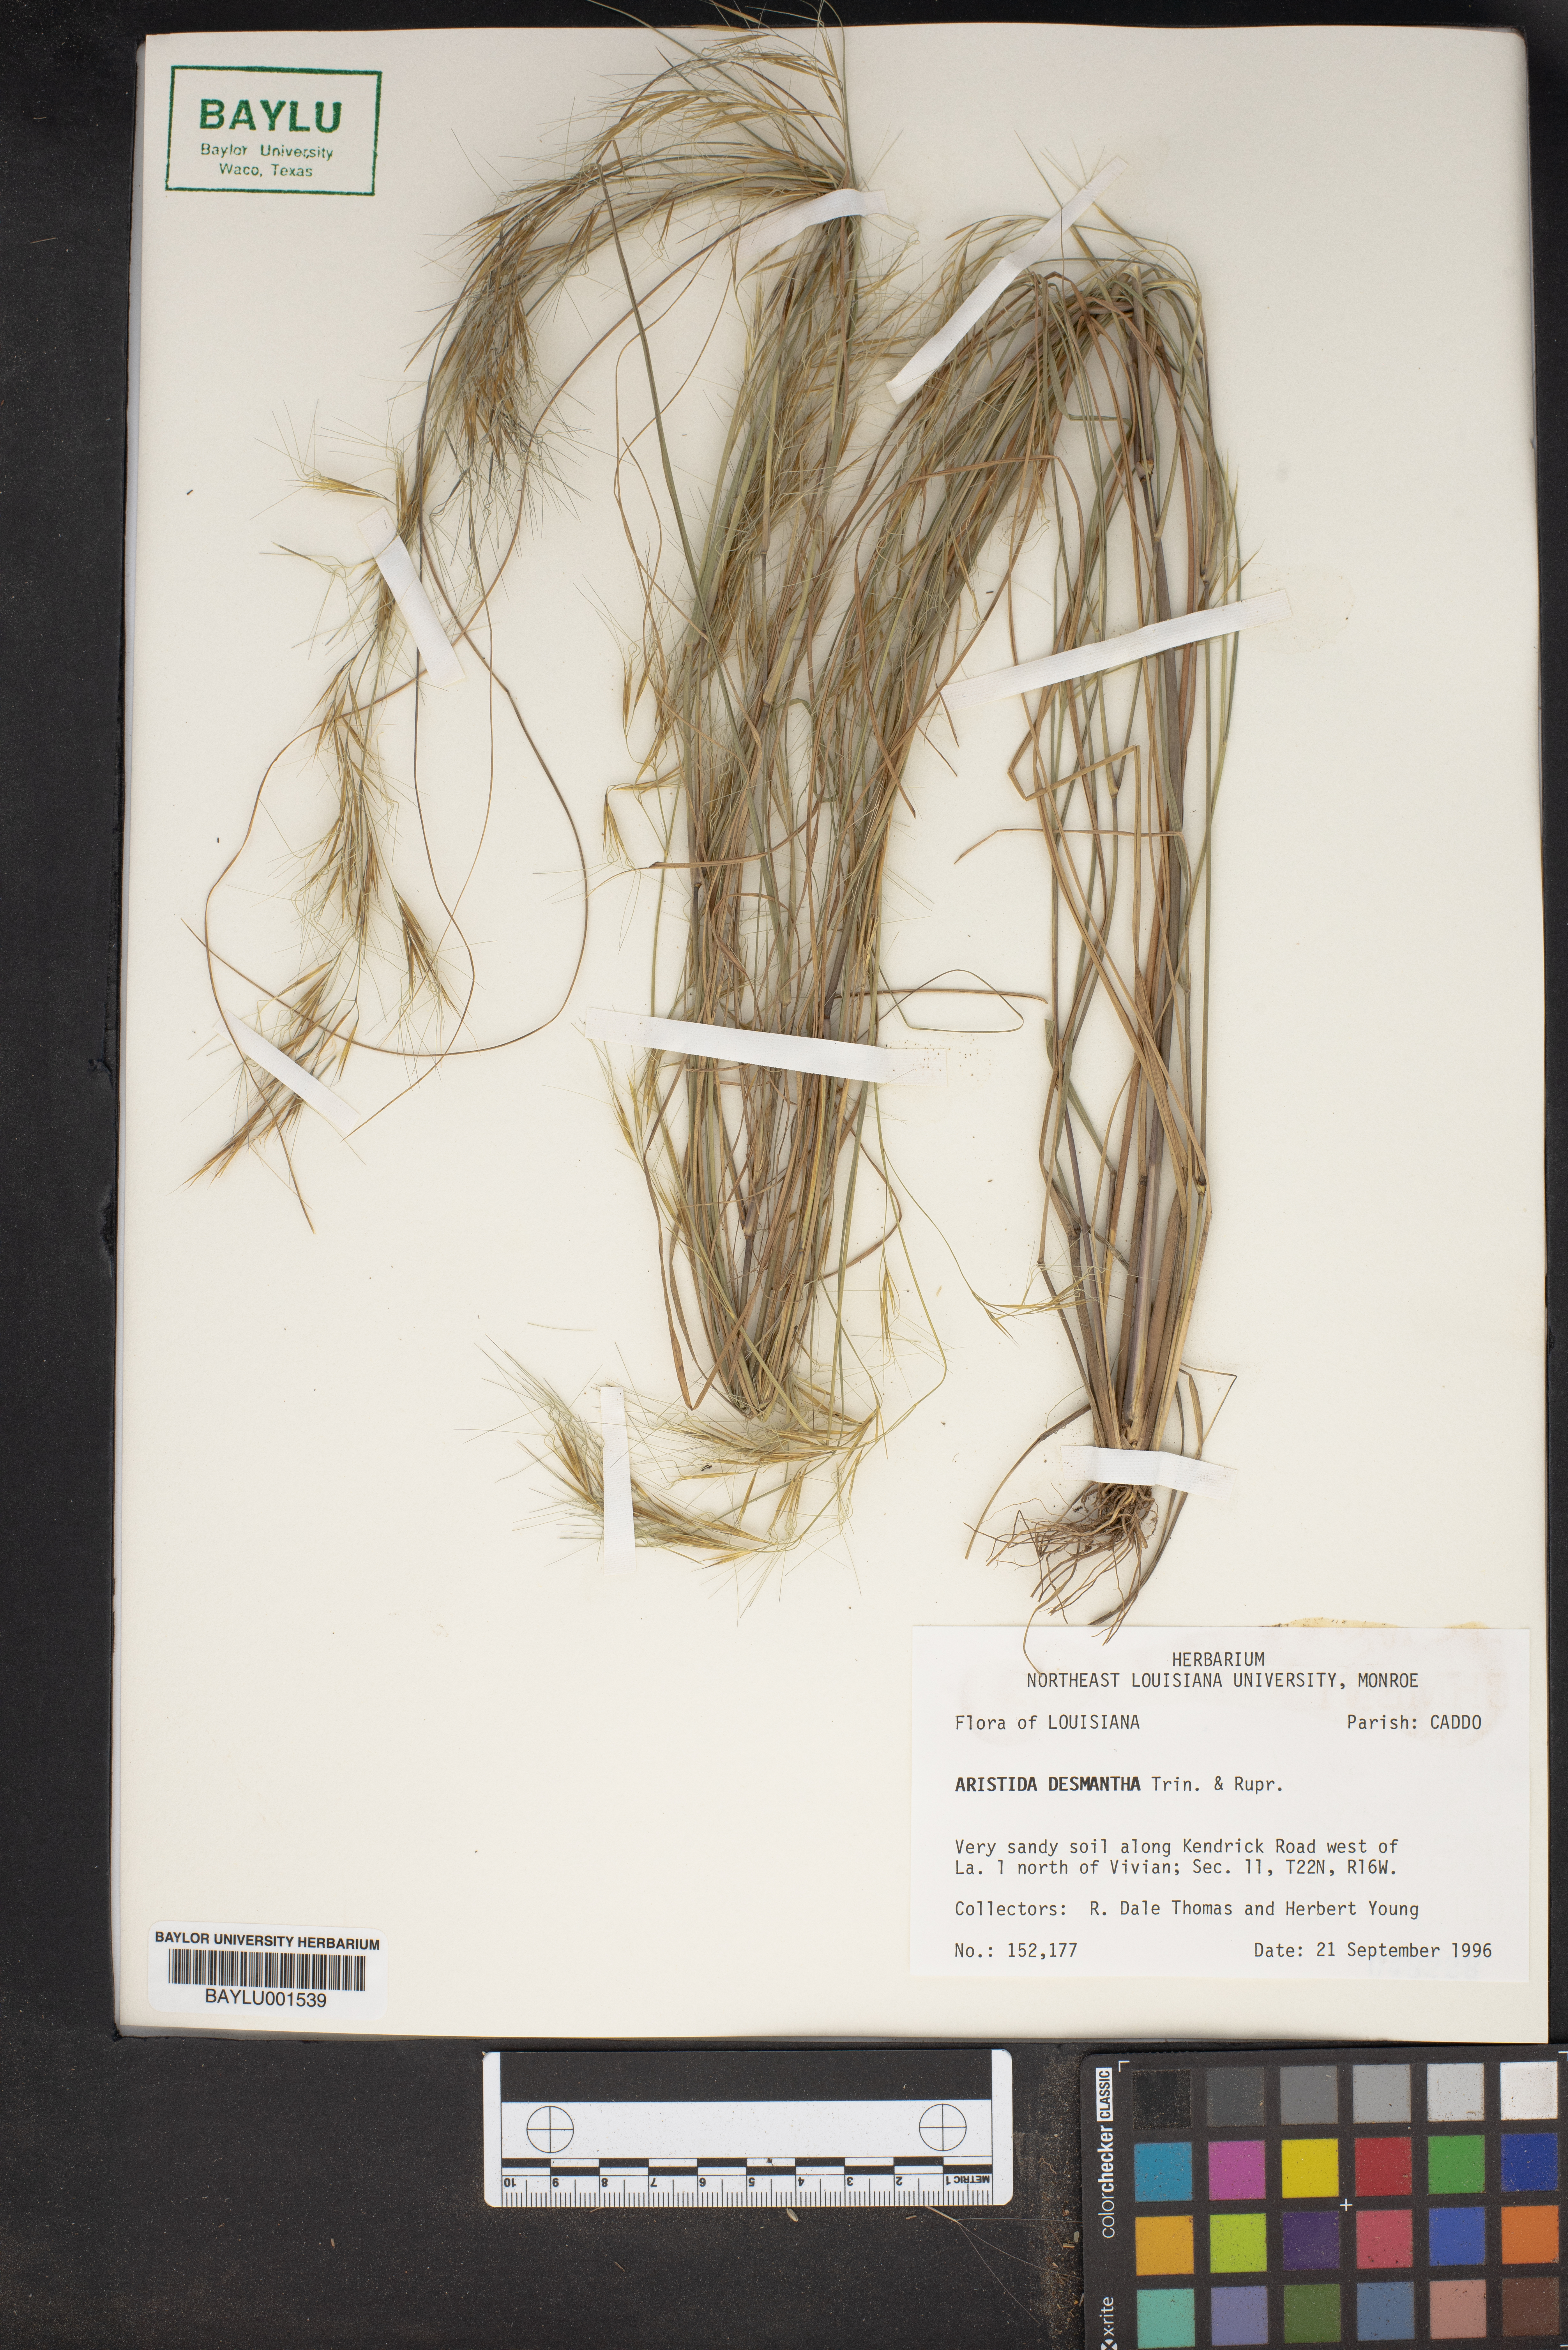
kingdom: Plantae
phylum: Tracheophyta
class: Liliopsida
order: Poales
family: Poaceae
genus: Aristida
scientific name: Aristida desmantha
